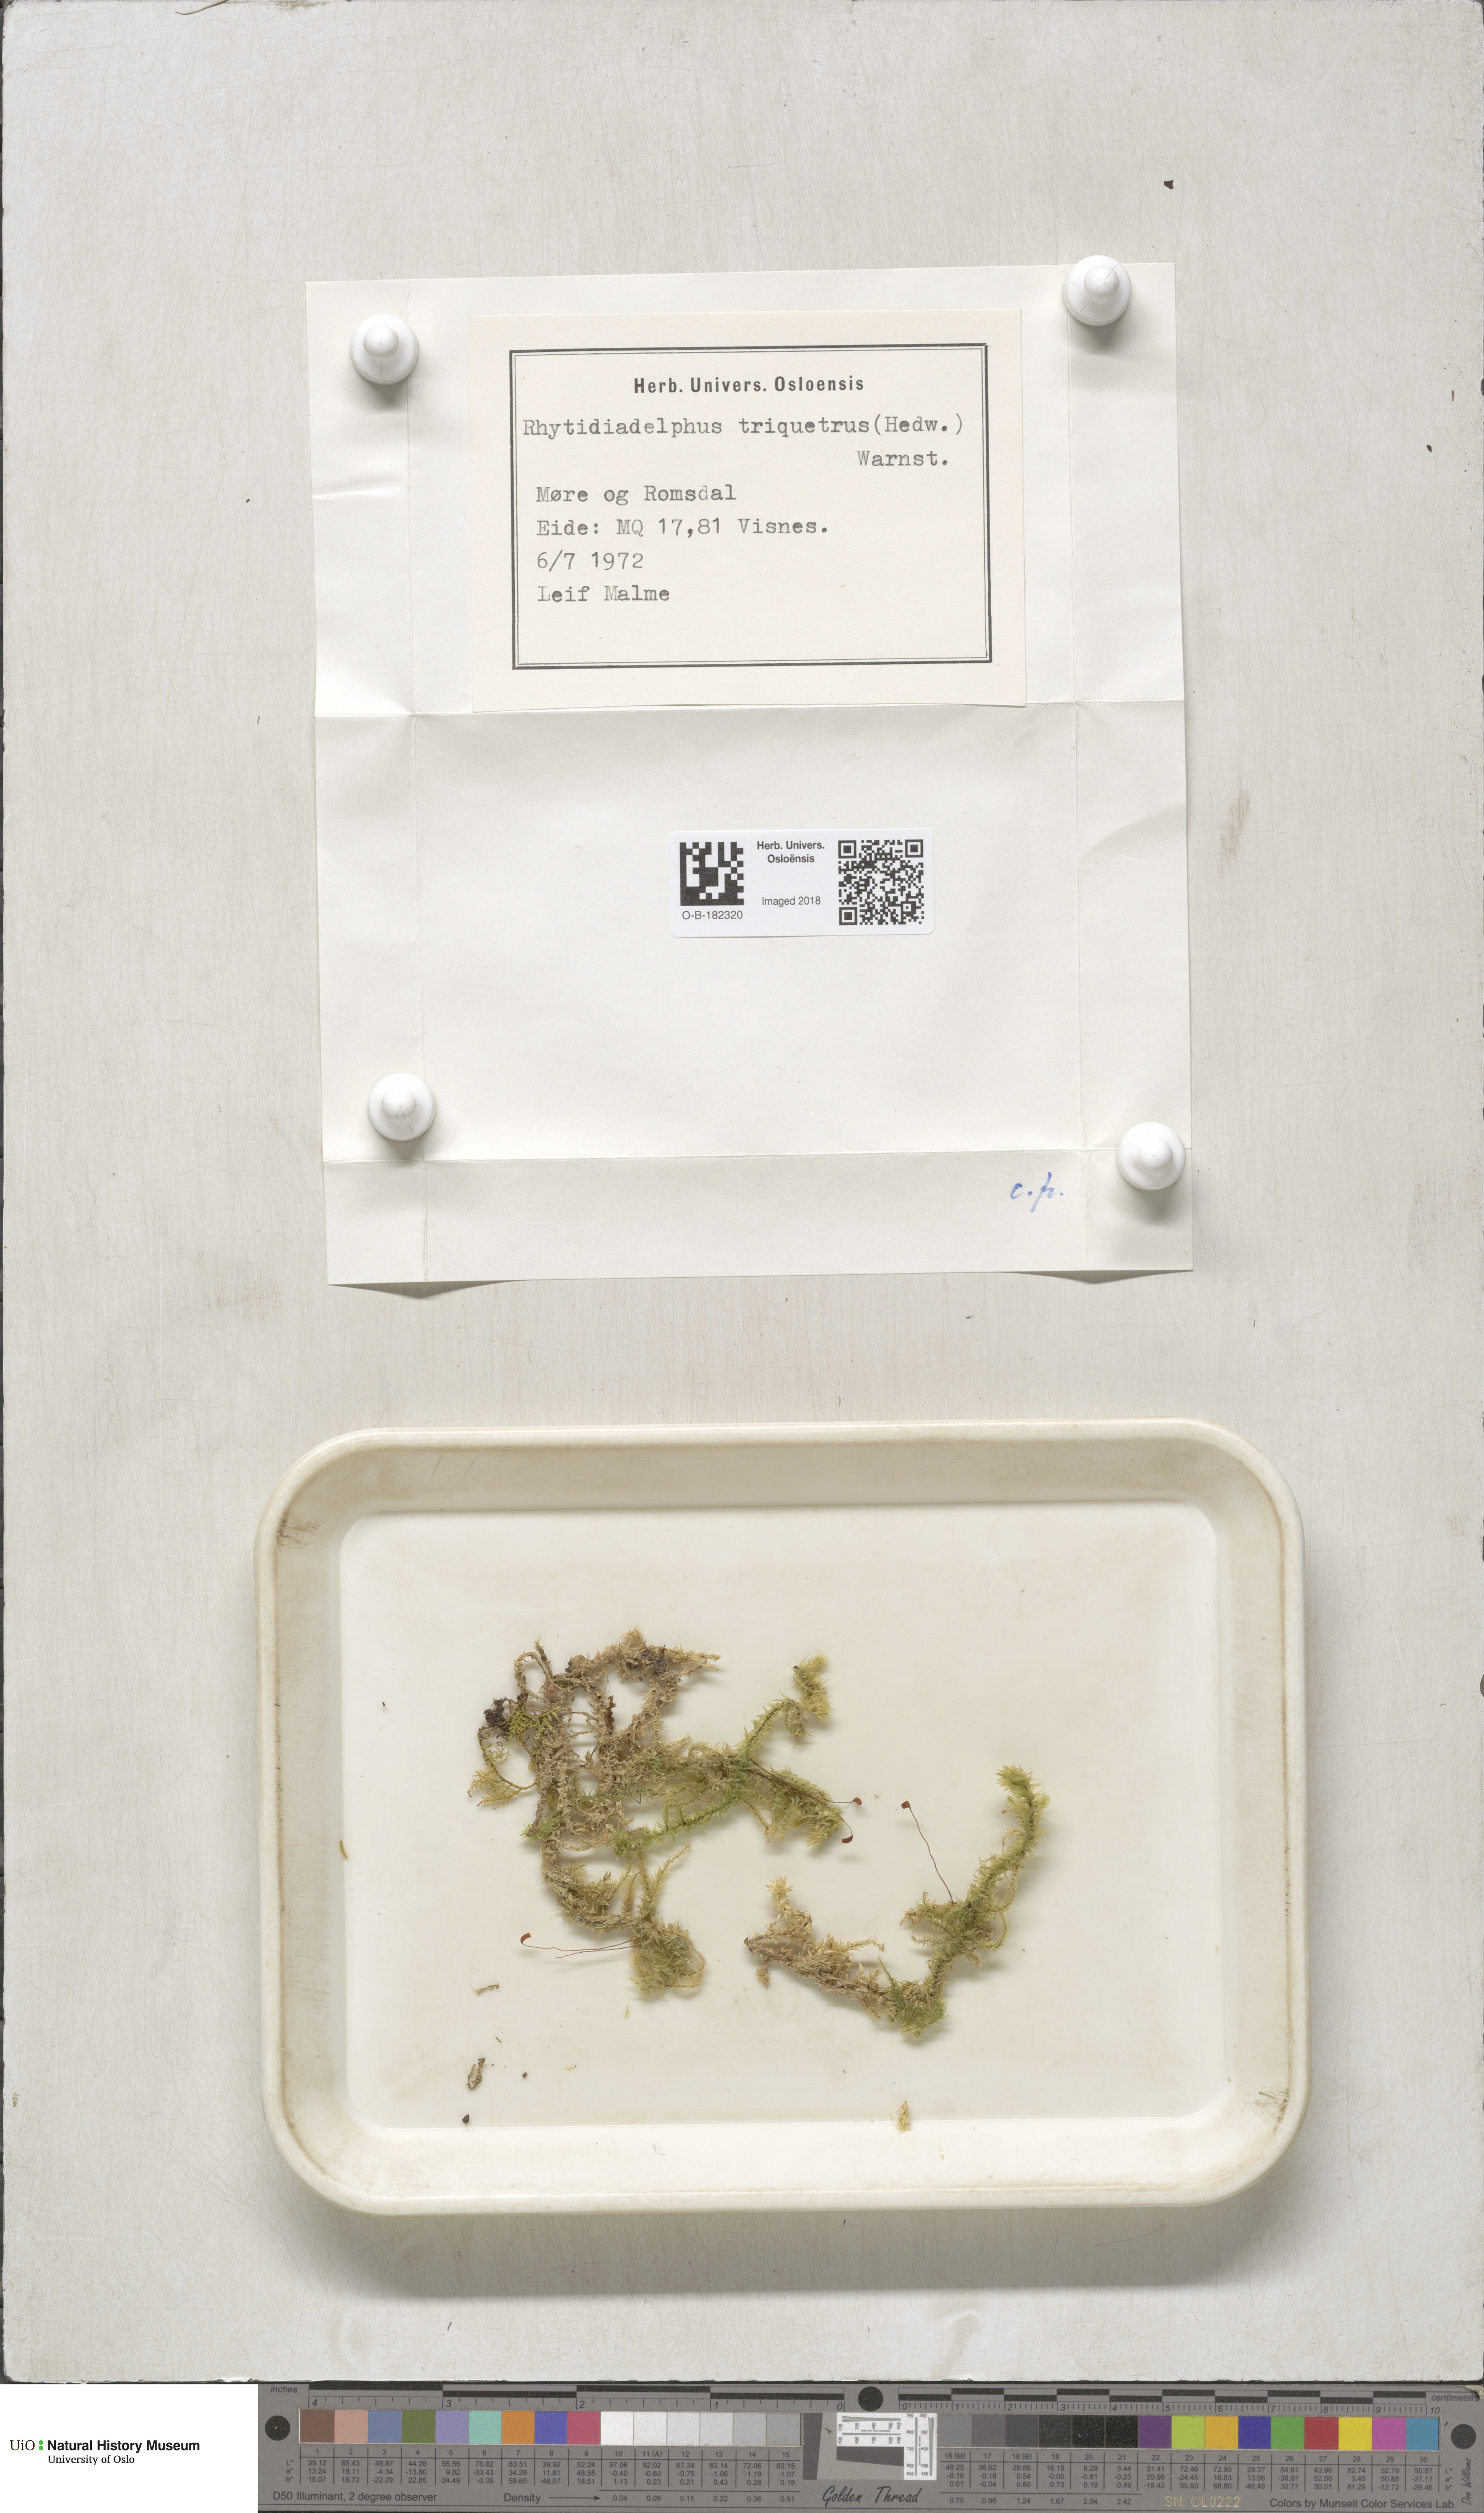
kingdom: Plantae
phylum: Bryophyta
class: Bryopsida
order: Hypnales
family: Hylocomiaceae
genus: Hylocomiadelphus
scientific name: Hylocomiadelphus triquetrus
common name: Rough goose neck moss
